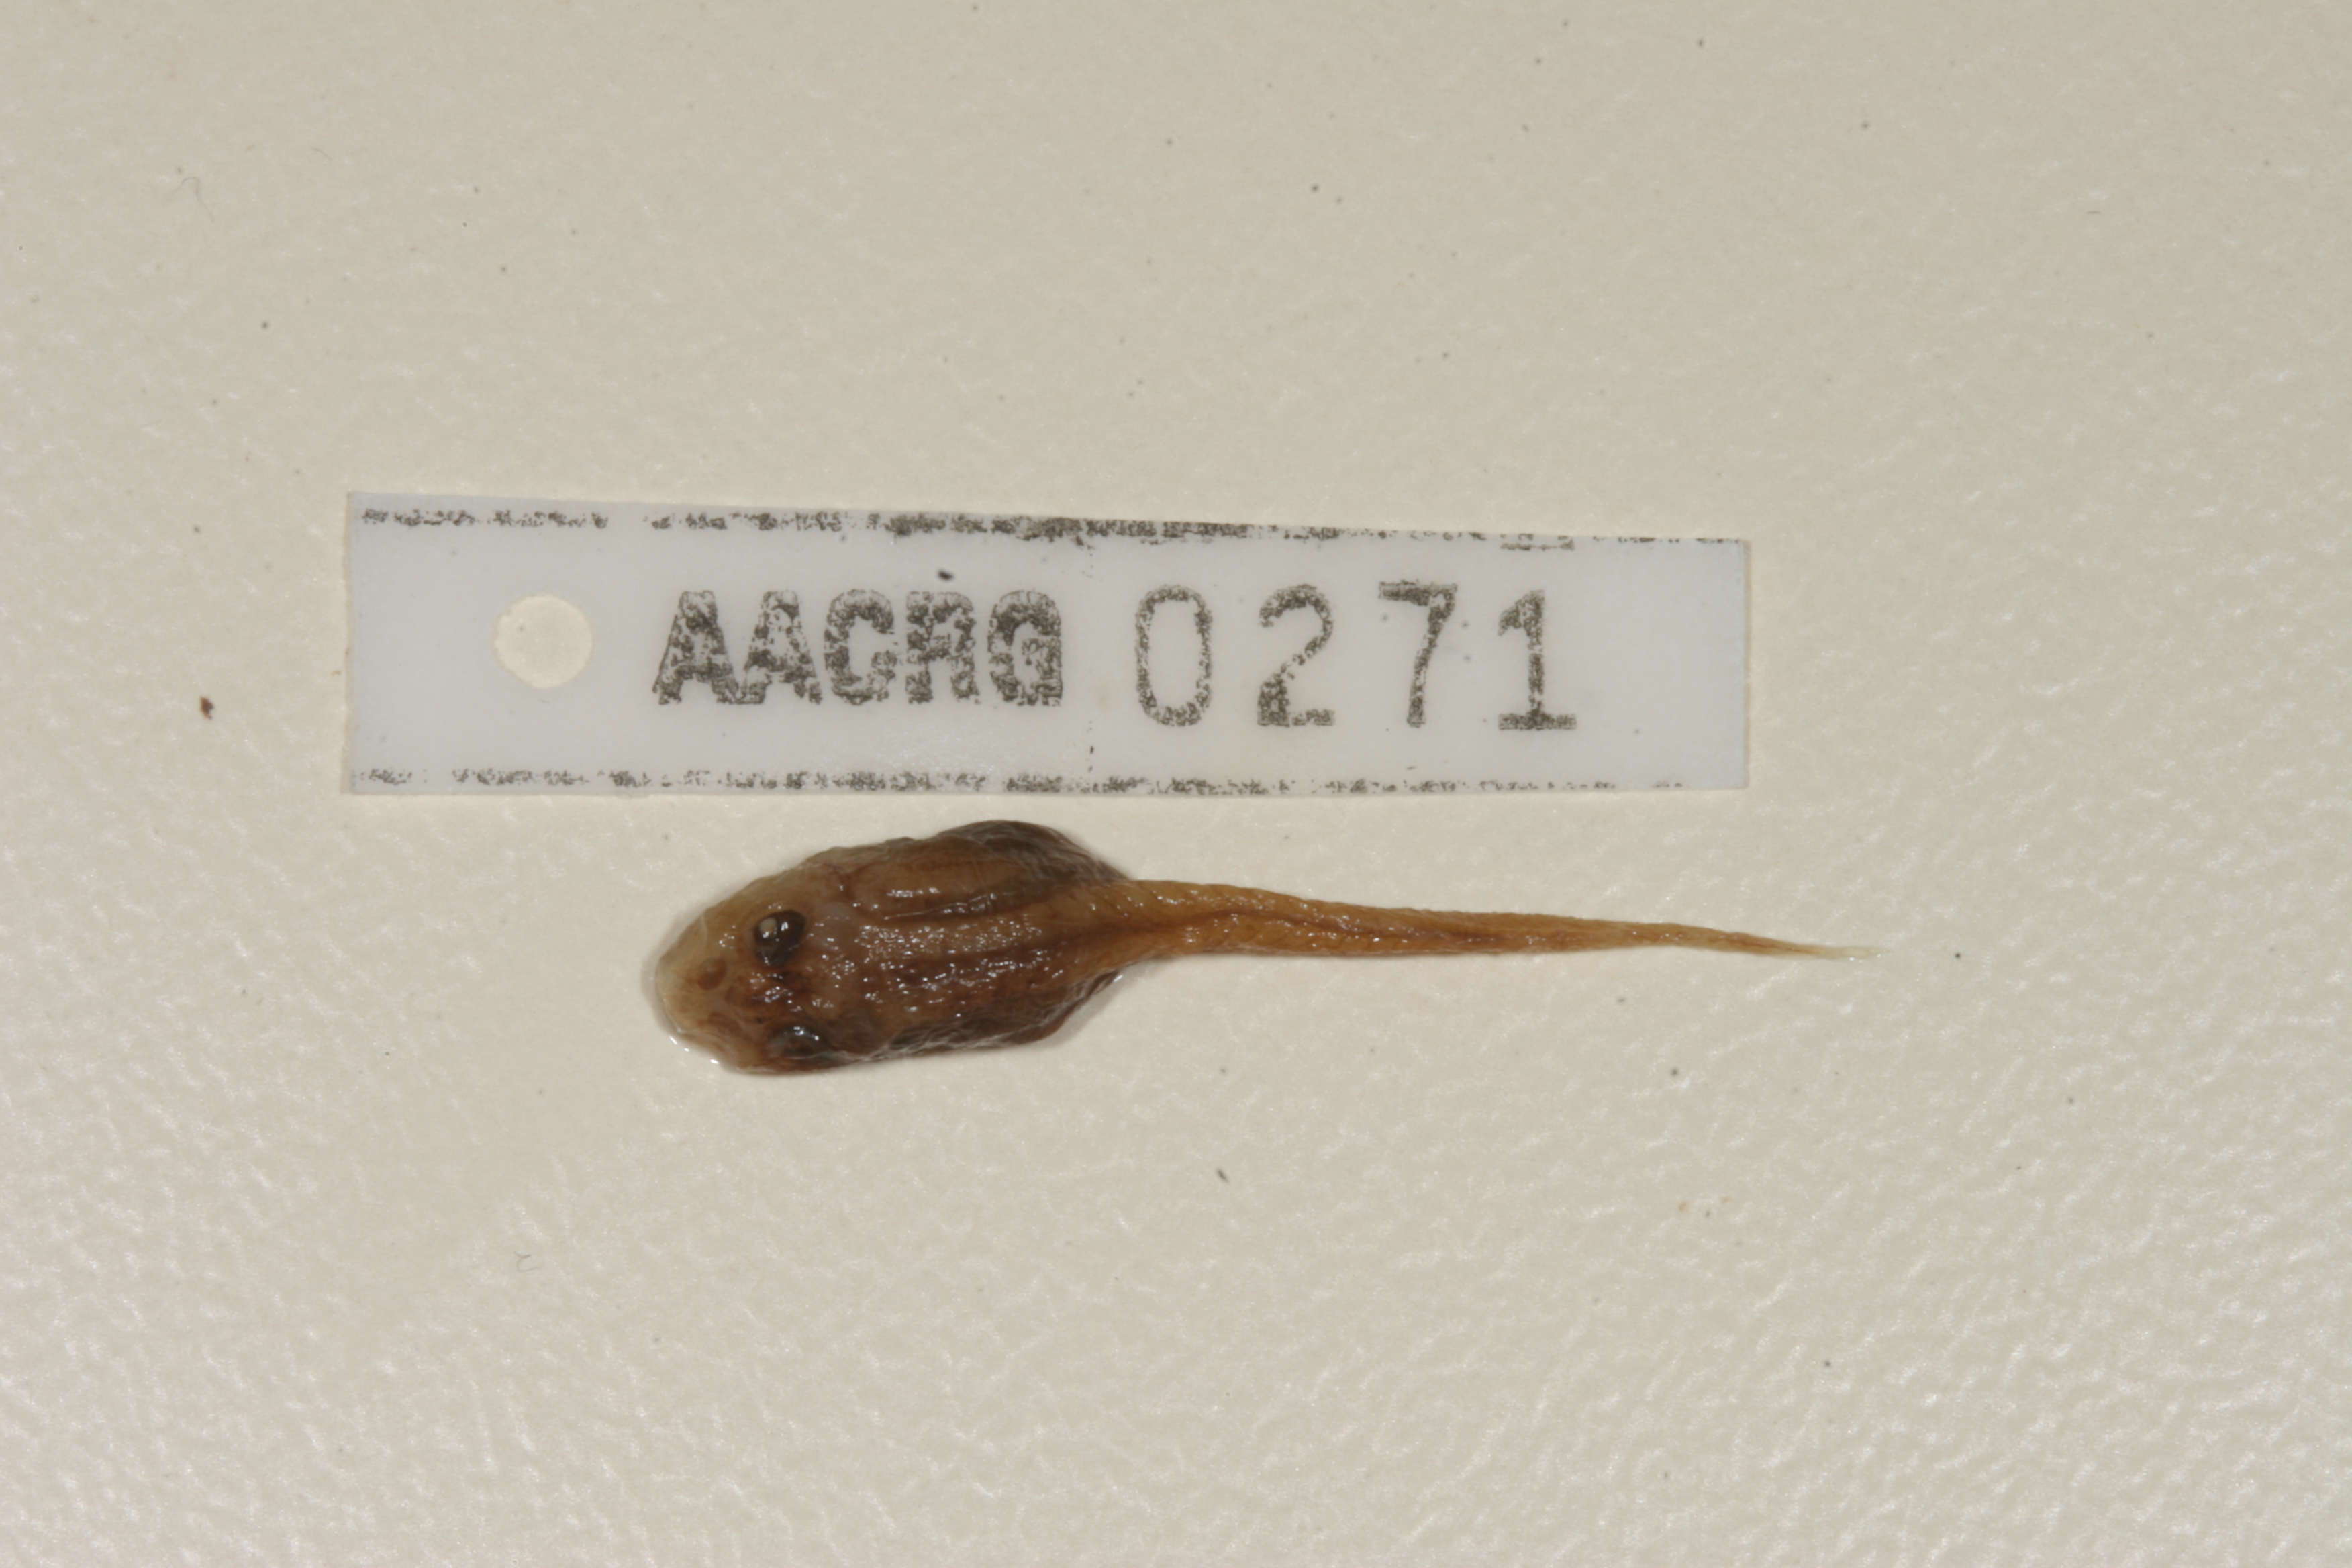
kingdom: Animalia
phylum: Chordata
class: Amphibia
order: Anura
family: Pyxicephalidae
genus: Amietia
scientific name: Amietia vertebralis
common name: Drakensberg stream frog
